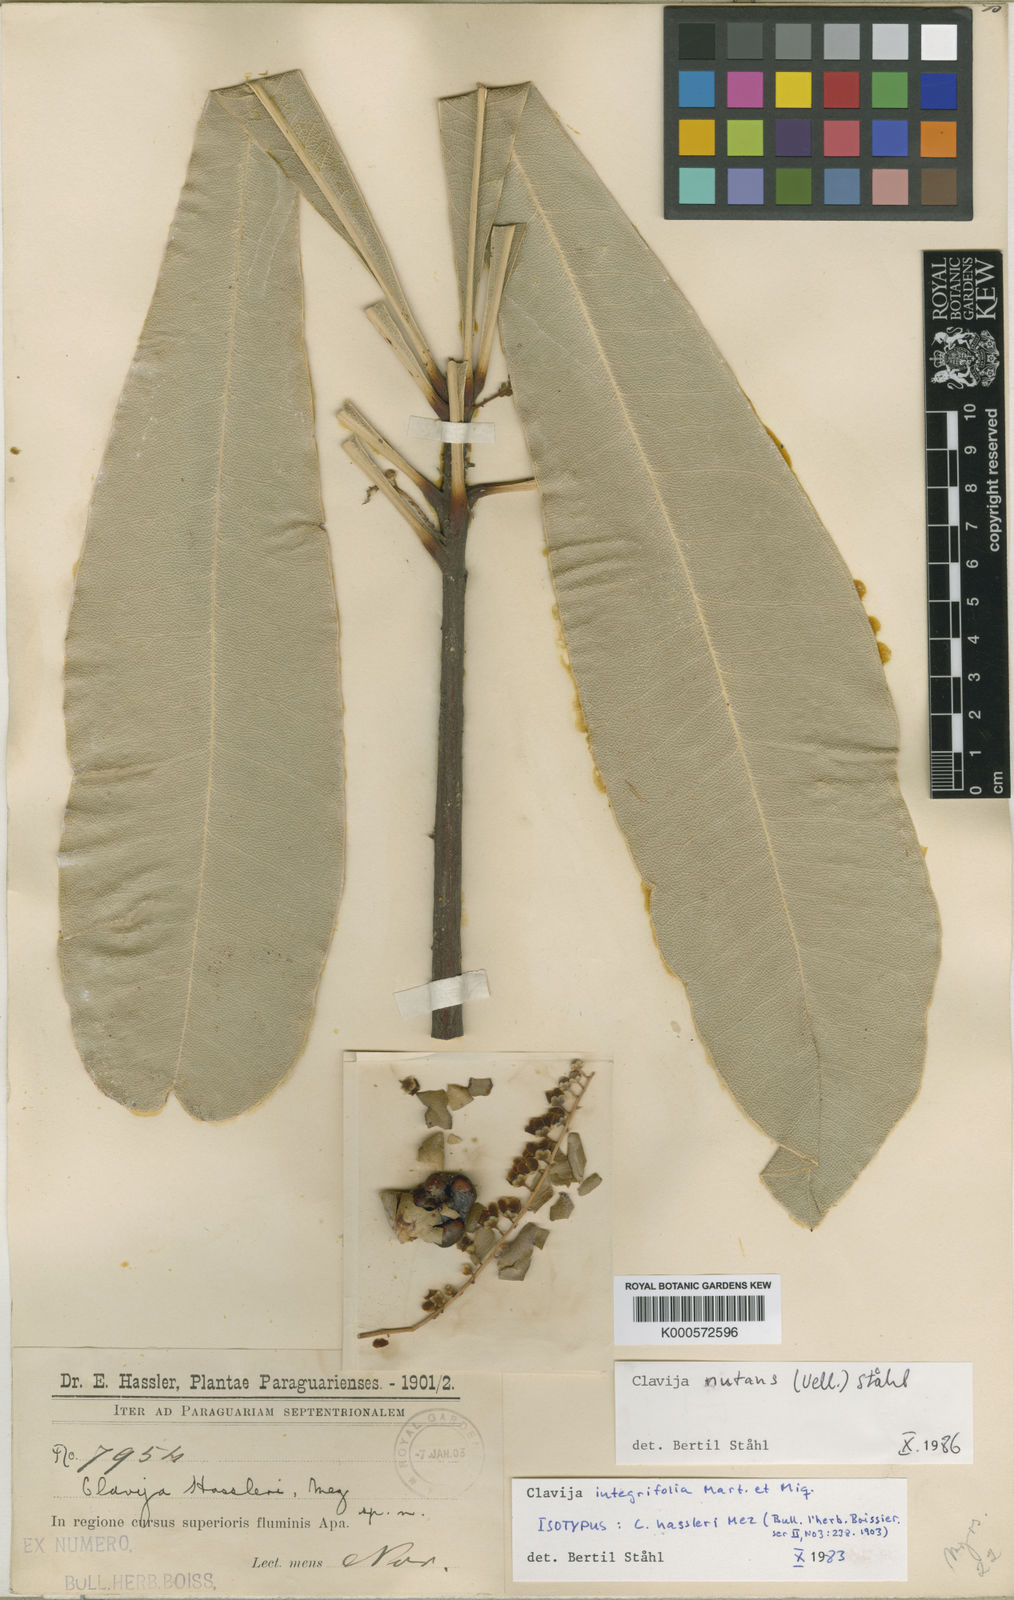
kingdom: Plantae
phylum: Tracheophyta
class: Magnoliopsida
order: Ericales
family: Primulaceae
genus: Clavija
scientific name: Clavija
